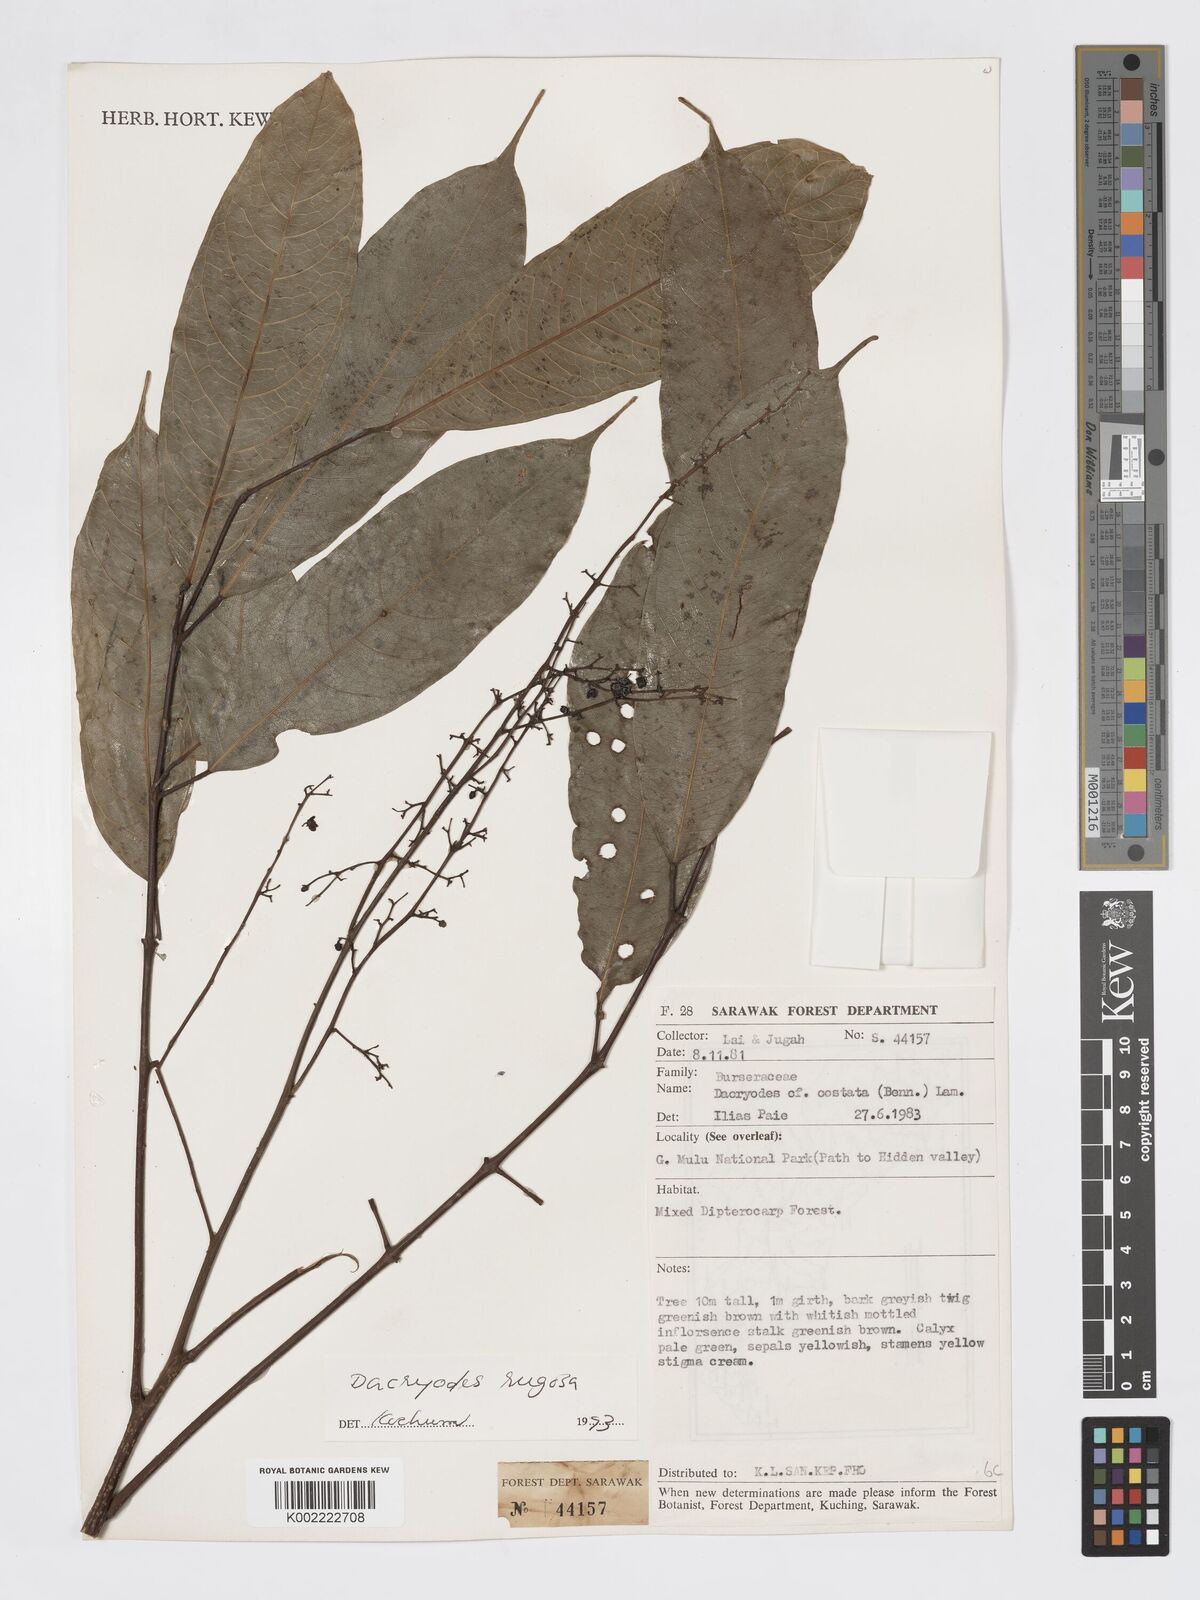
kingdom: Plantae
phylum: Tracheophyta
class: Magnoliopsida
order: Sapindales
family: Burseraceae
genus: Dacryodes
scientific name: Dacryodes rugosa
